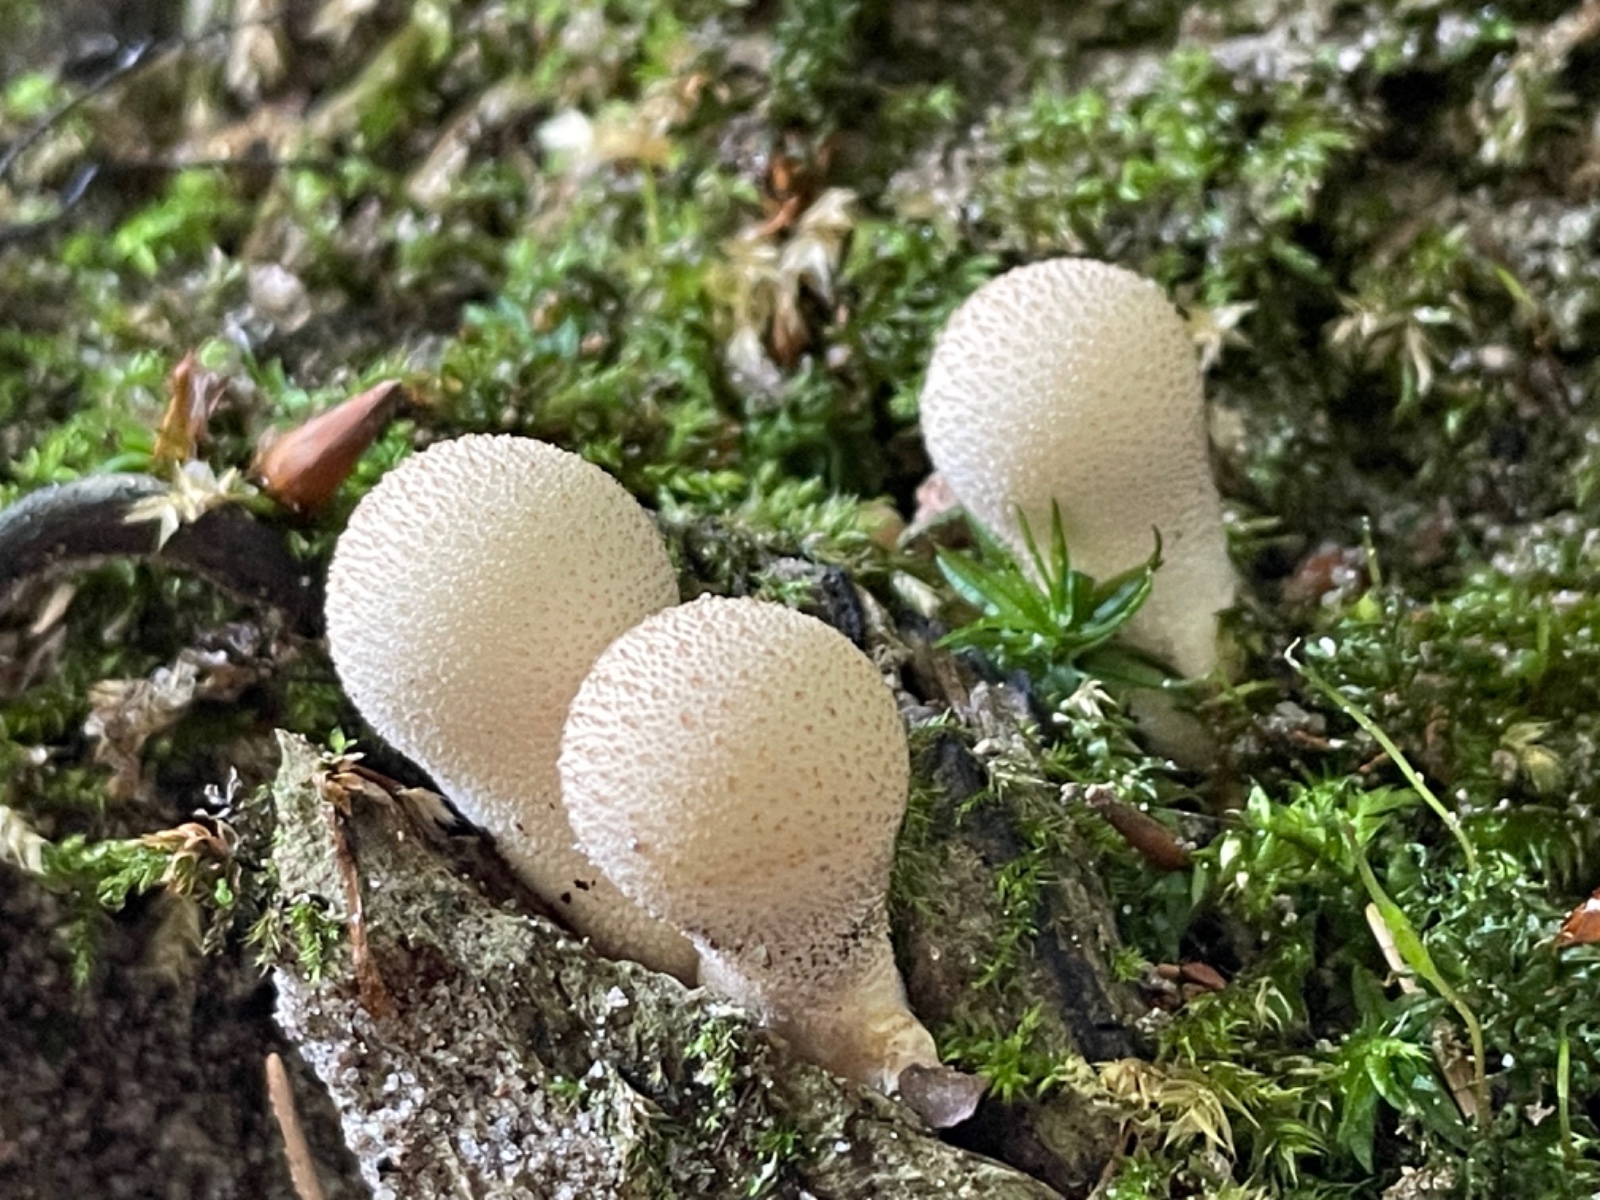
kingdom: Fungi
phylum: Basidiomycota
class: Agaricomycetes
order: Agaricales
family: Lycoperdaceae
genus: Apioperdon
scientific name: Apioperdon pyriforme
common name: pære-støvbold
